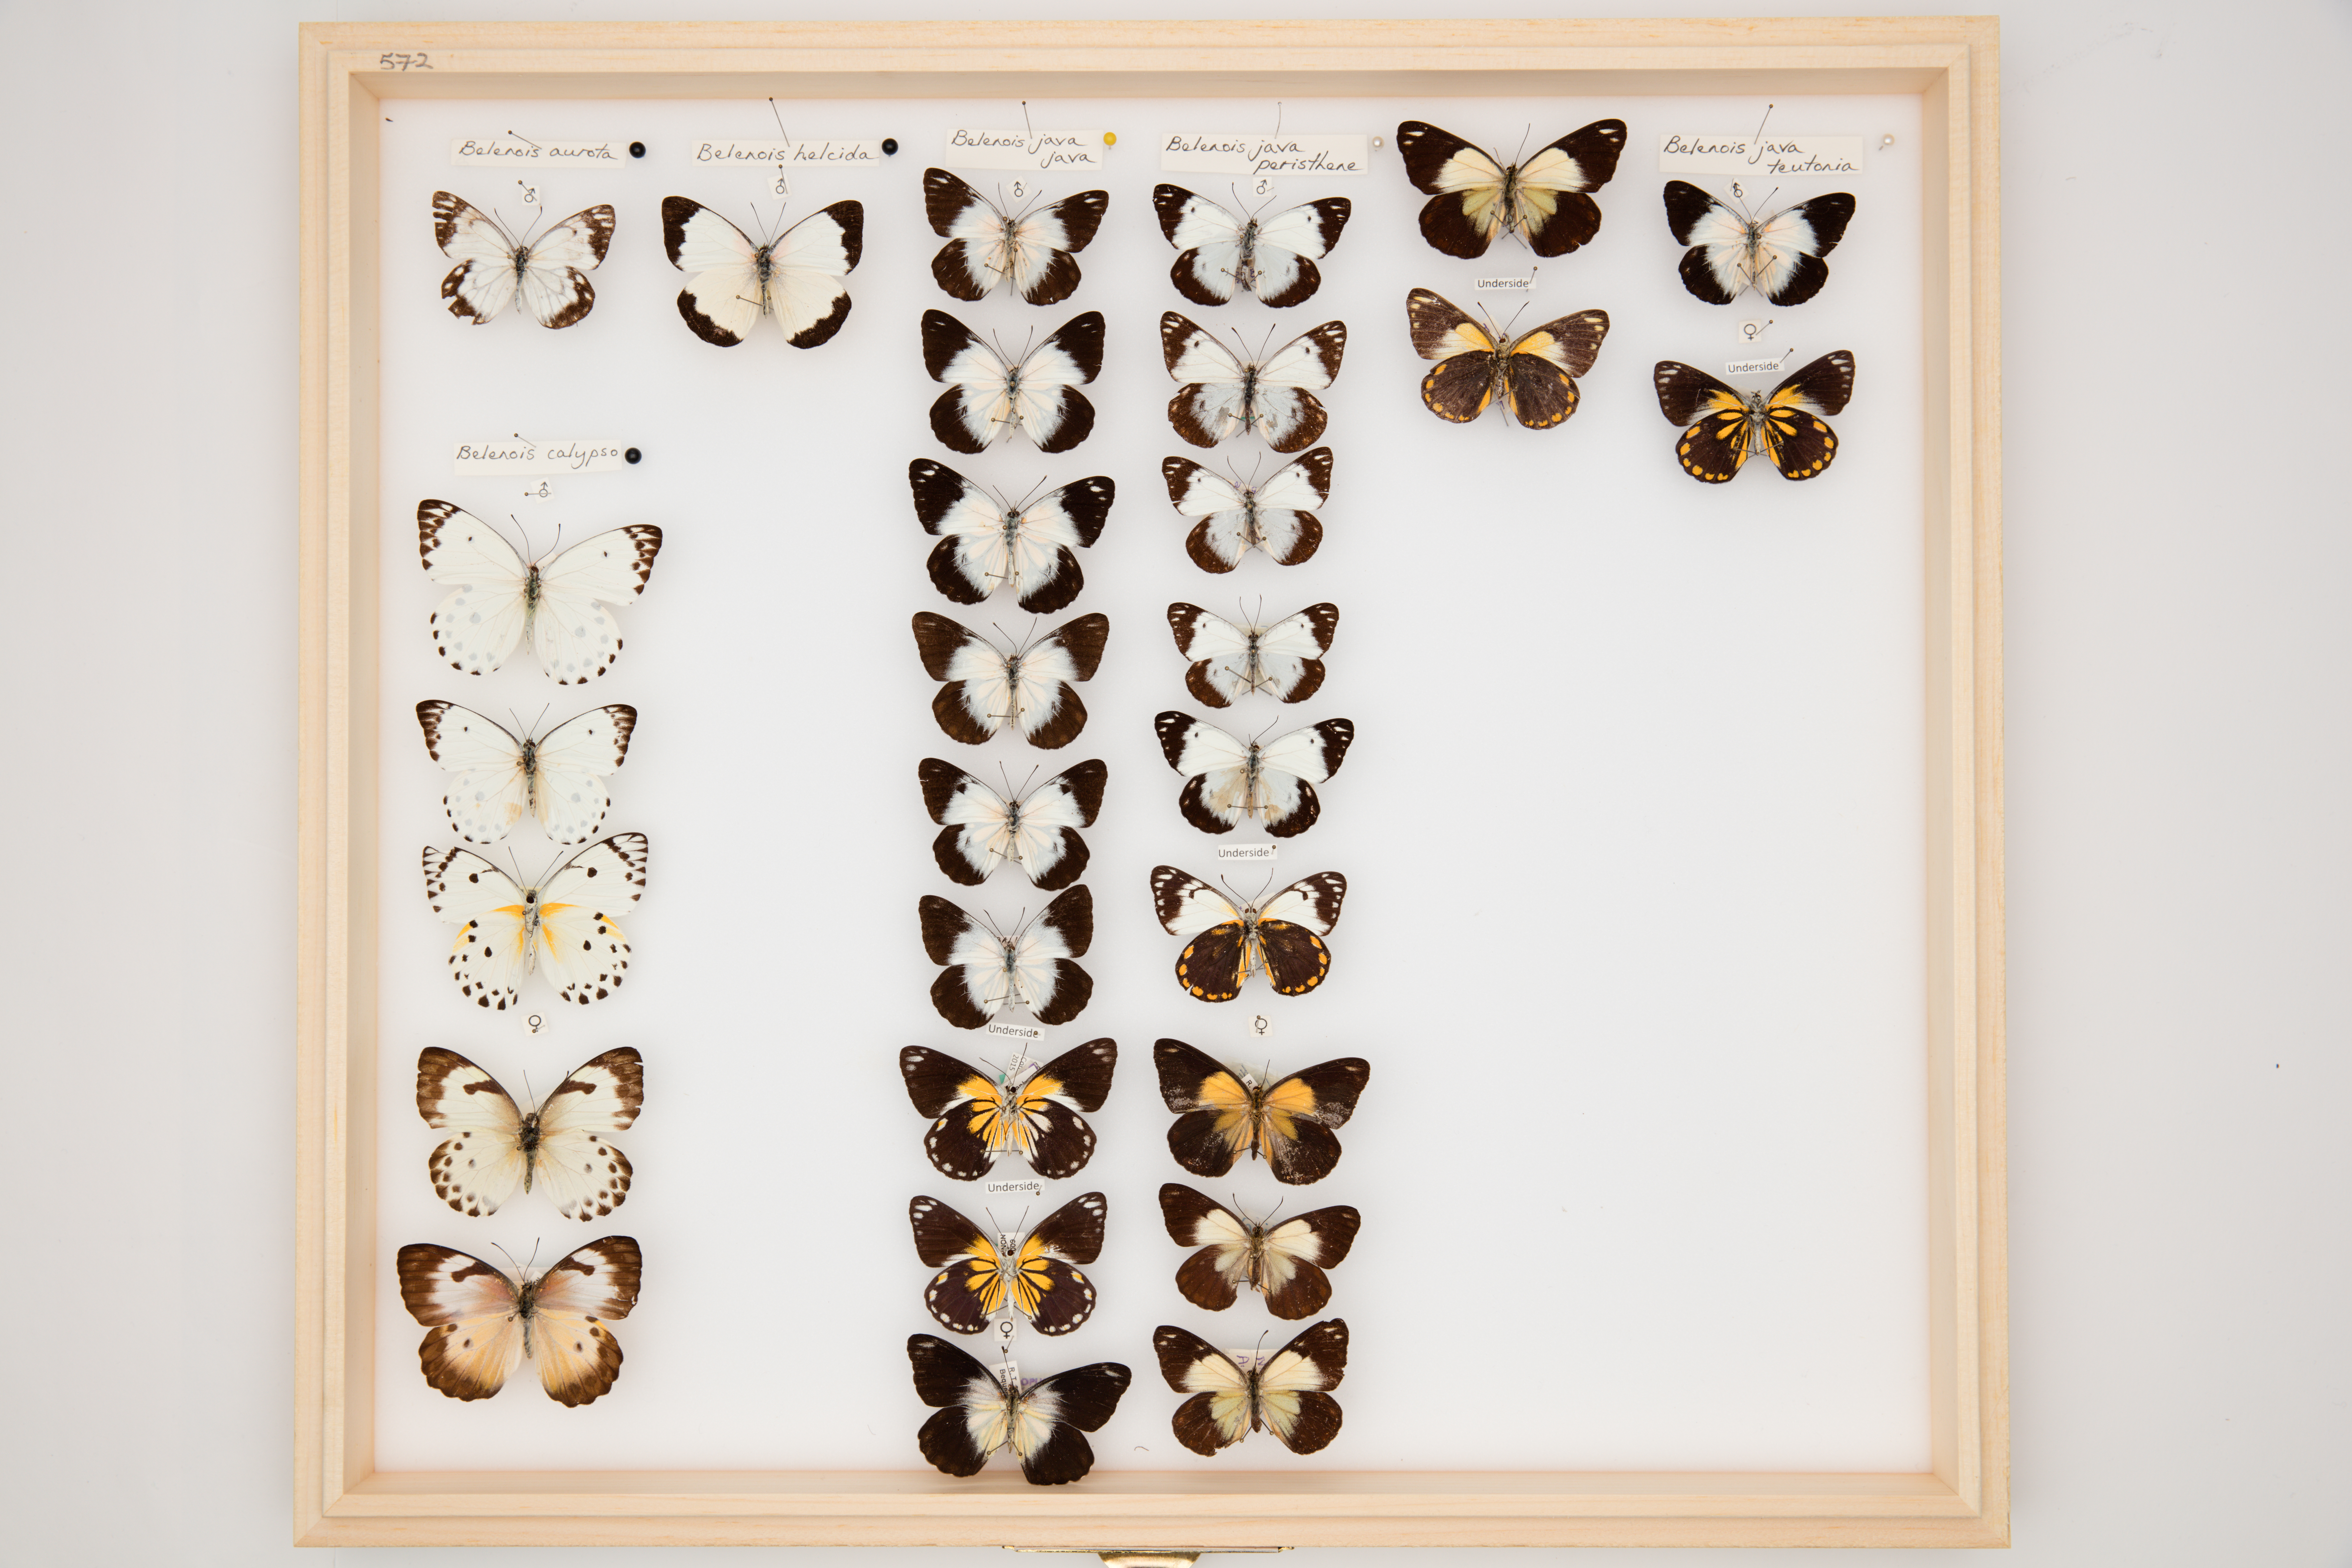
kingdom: Animalia
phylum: Arthropoda
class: Insecta
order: Lepidoptera
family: Pieridae
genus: Belenois
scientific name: Belenois java
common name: Caper white
